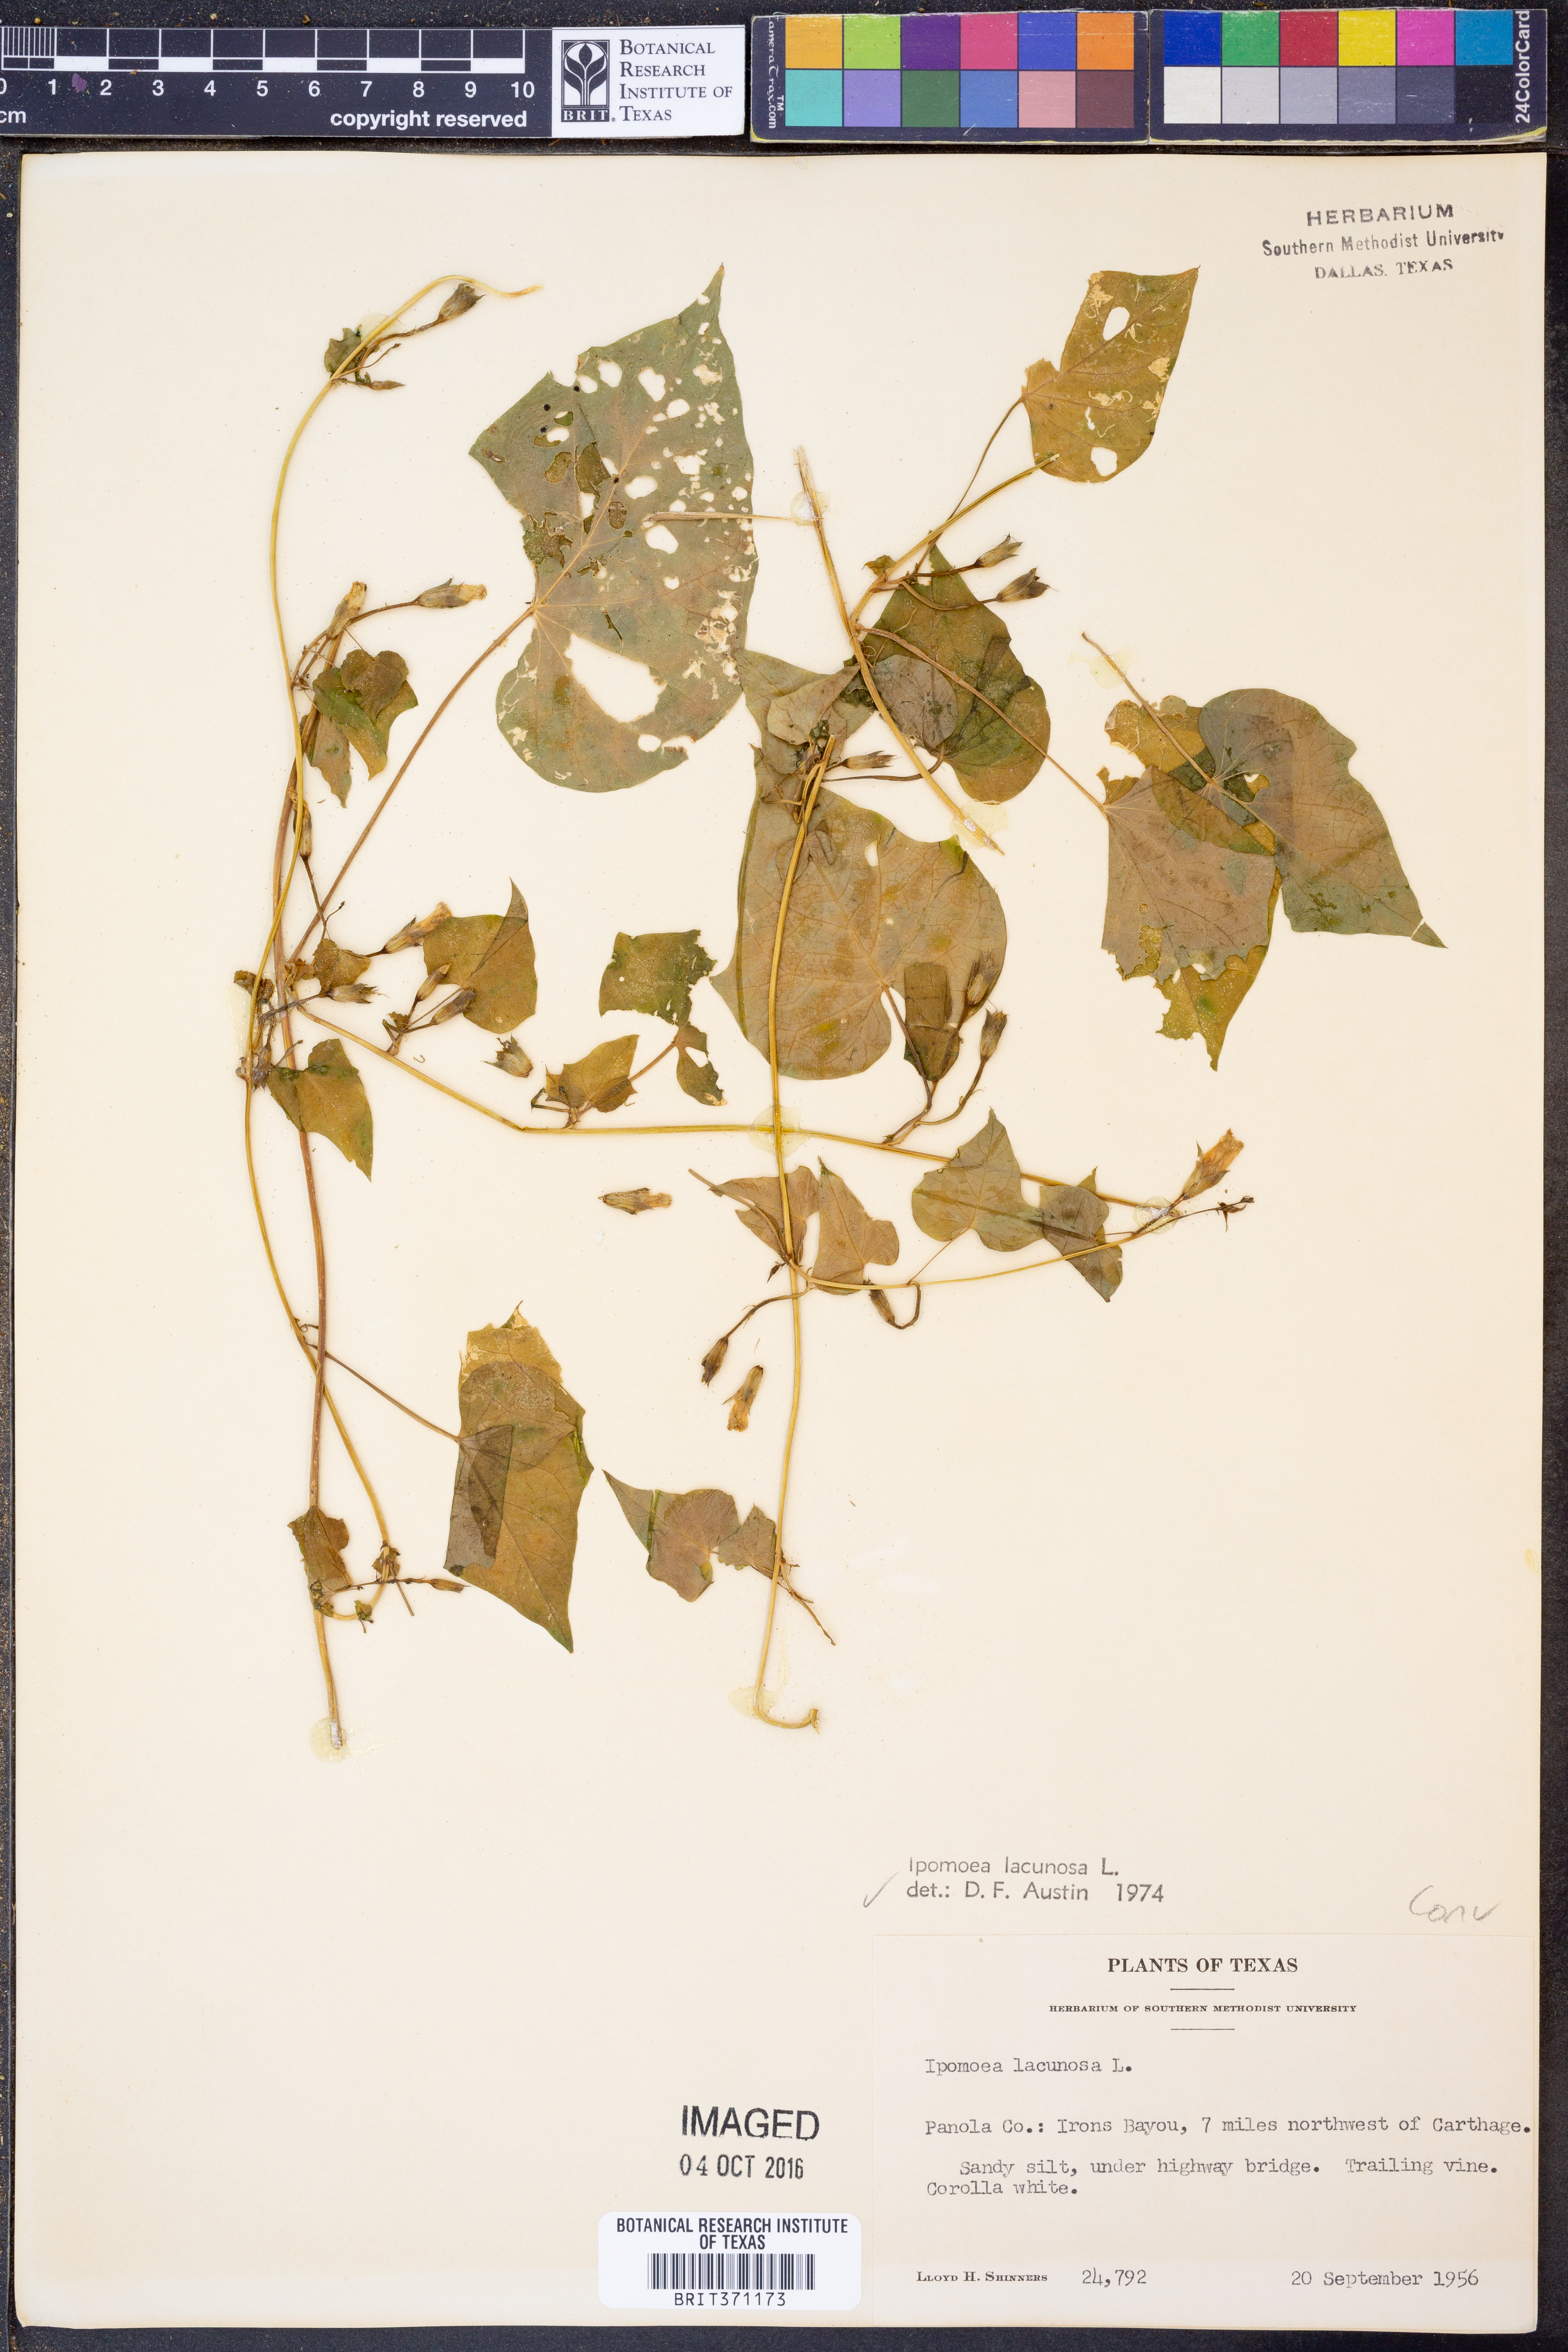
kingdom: Plantae
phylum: Tracheophyta
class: Magnoliopsida
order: Solanales
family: Convolvulaceae
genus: Ipomoea
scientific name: Ipomoea lacunosa
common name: White morning-glory
